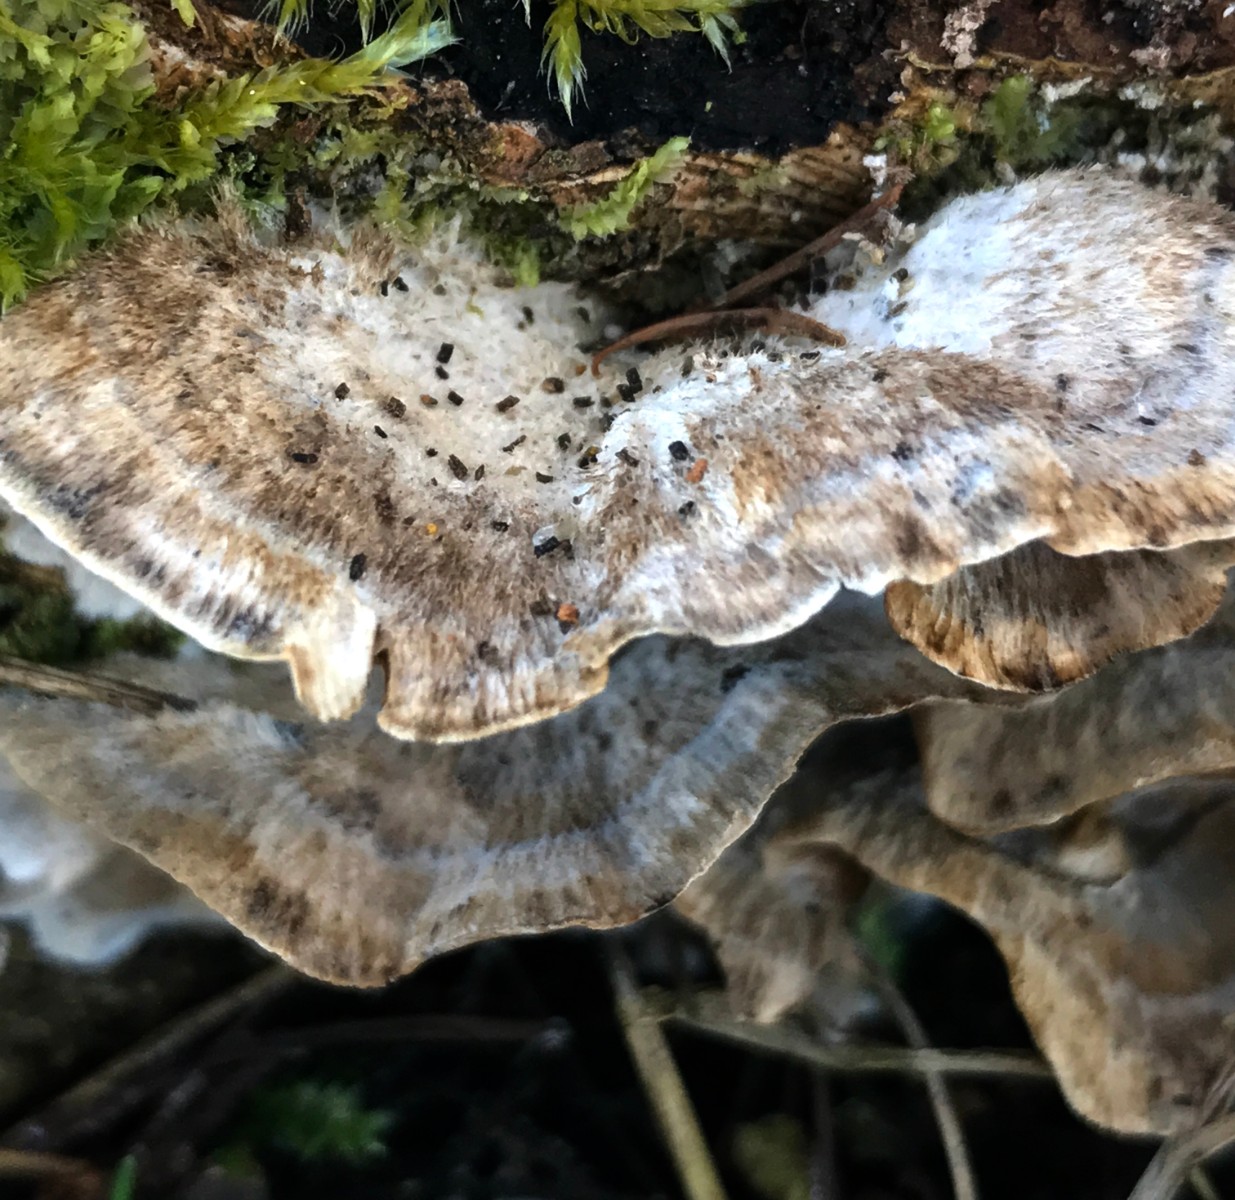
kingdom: Fungi
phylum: Basidiomycota
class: Agaricomycetes
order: Polyporales
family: Phanerochaetaceae
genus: Bjerkandera
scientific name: Bjerkandera adusta
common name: sveden sodporesvamp
